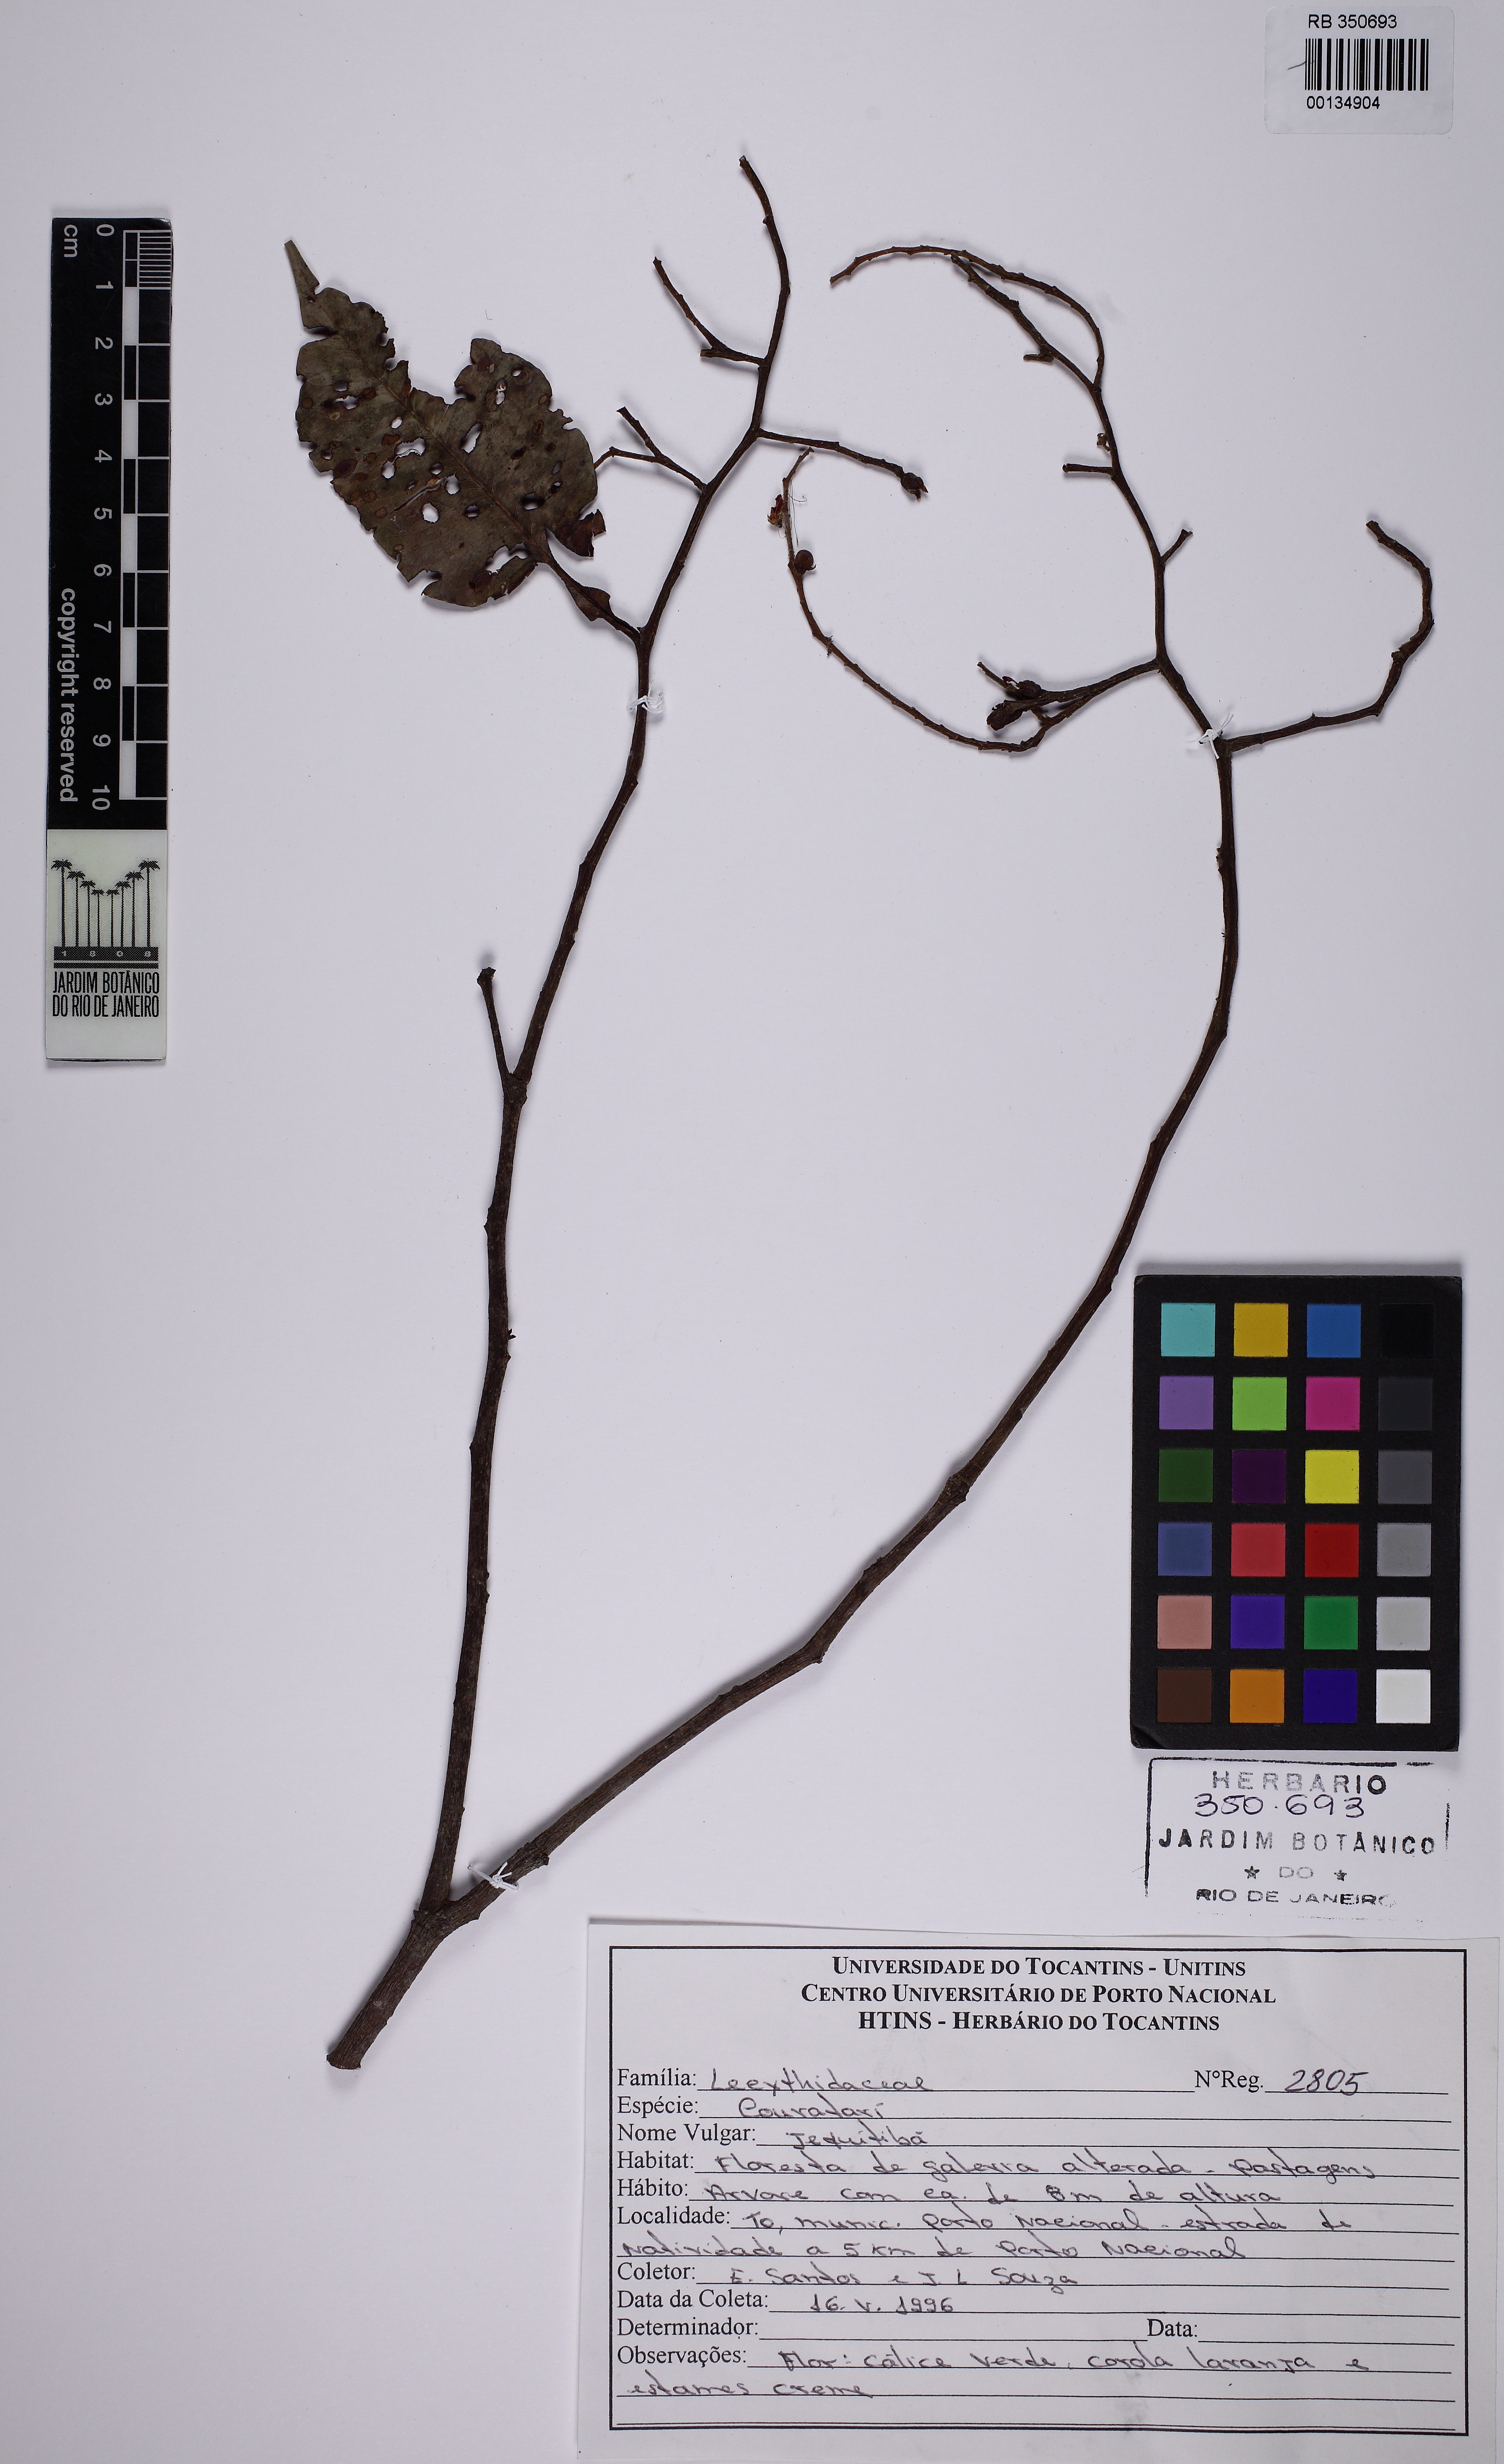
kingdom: Plantae
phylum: Tracheophyta
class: Magnoliopsida
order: Ericales
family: Lecythidaceae
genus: Cariniana
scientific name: Cariniana rubra
